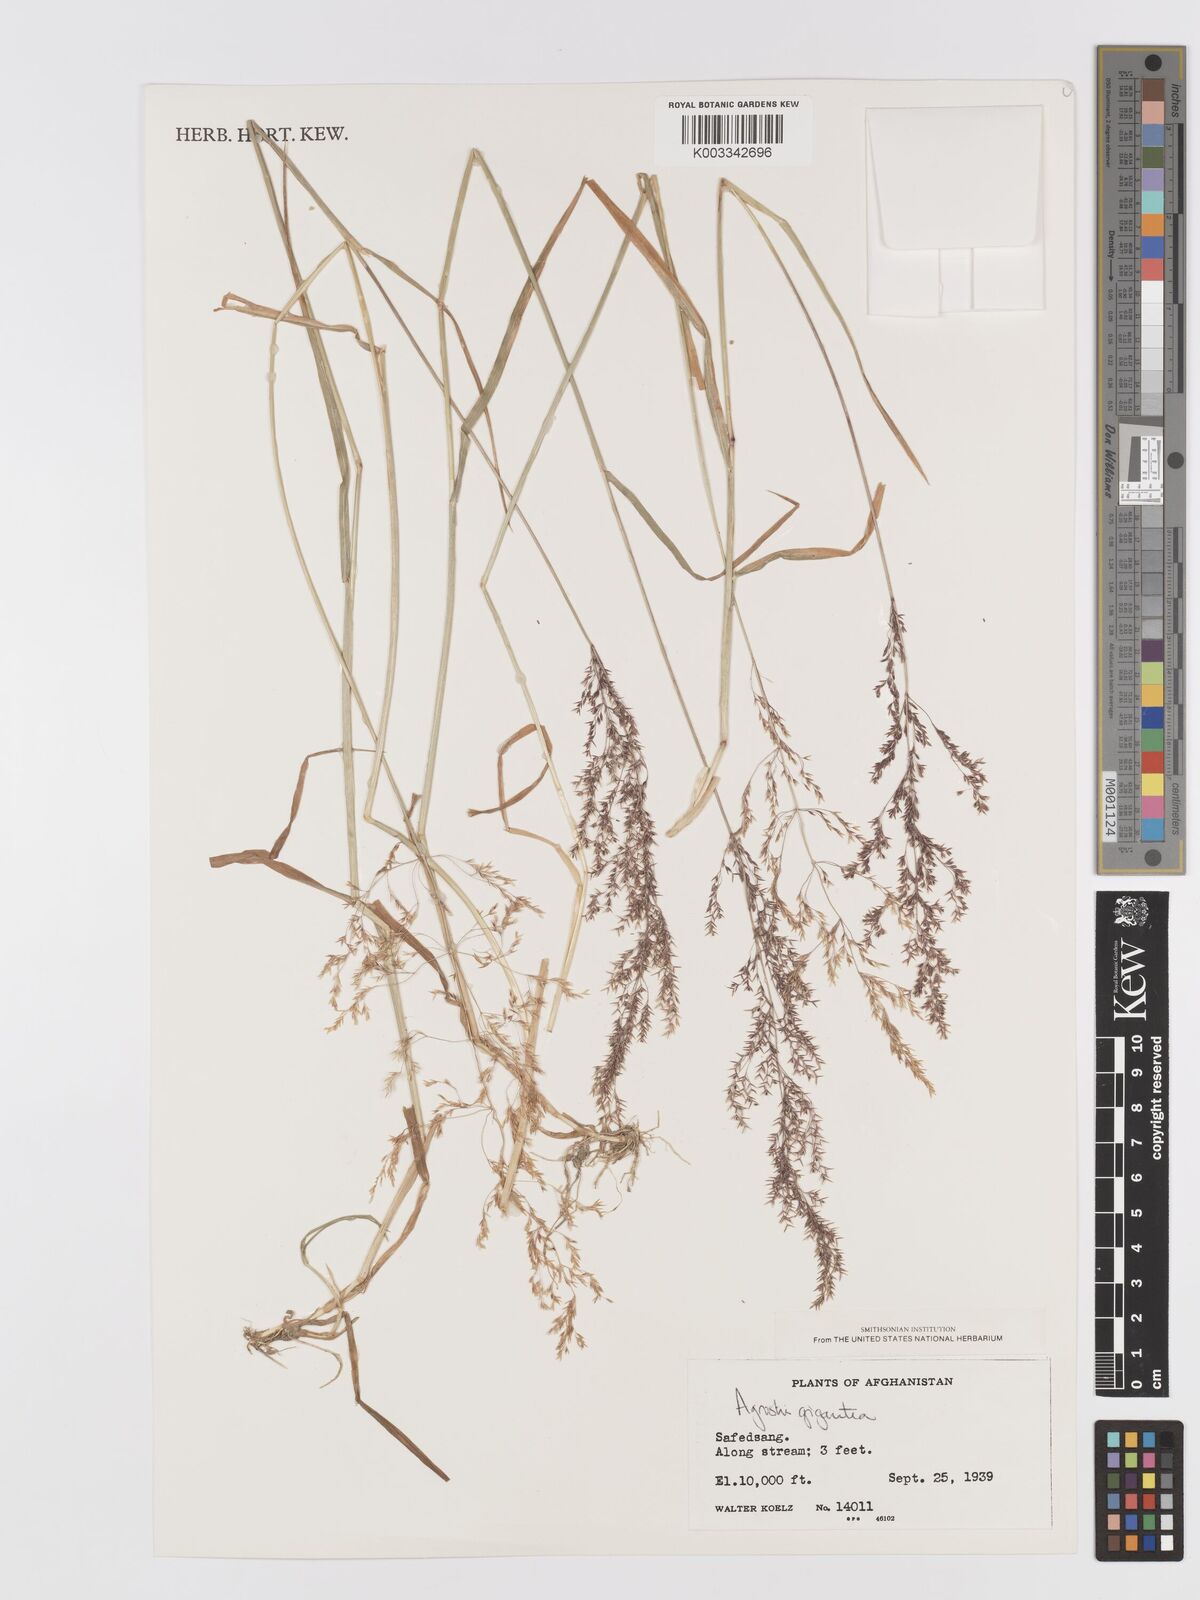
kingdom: Plantae
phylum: Tracheophyta
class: Liliopsida
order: Poales
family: Poaceae
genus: Agrostis
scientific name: Agrostis gigantea
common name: Black bent
